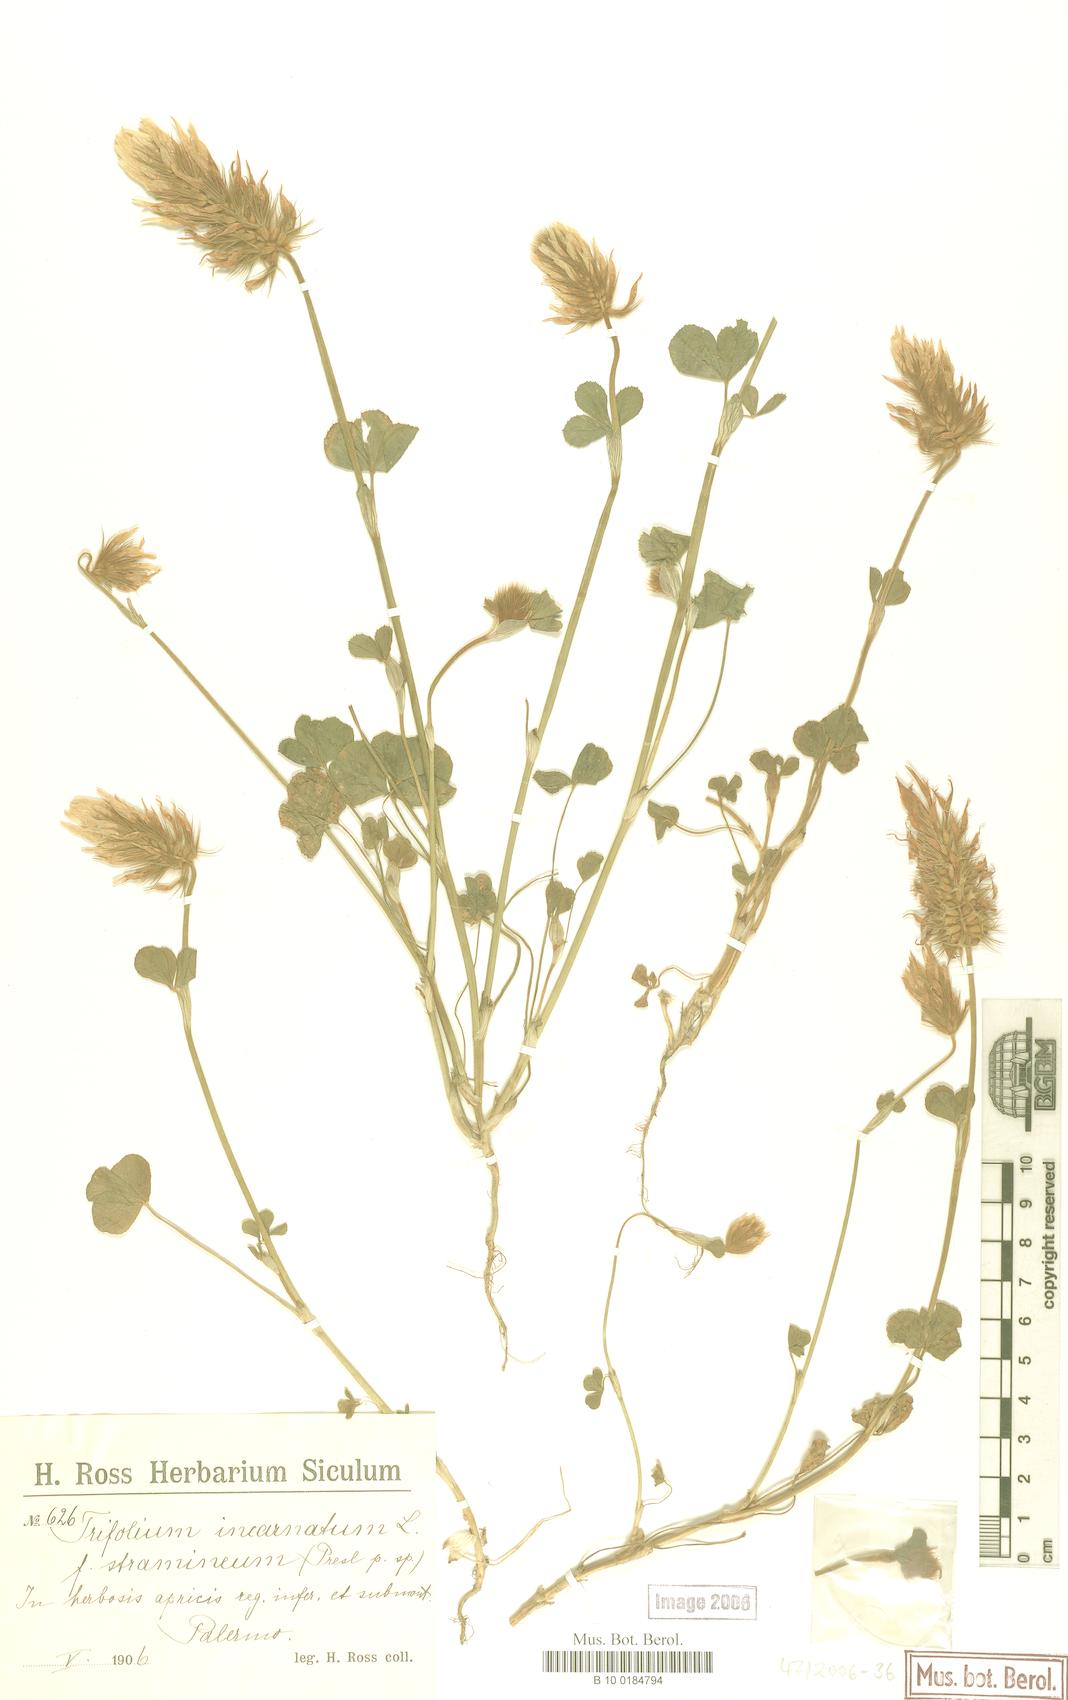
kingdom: Plantae
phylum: Tracheophyta
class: Magnoliopsida
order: Fabales
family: Fabaceae
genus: Trifolium
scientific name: Trifolium incarnatum
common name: Crimson clover
